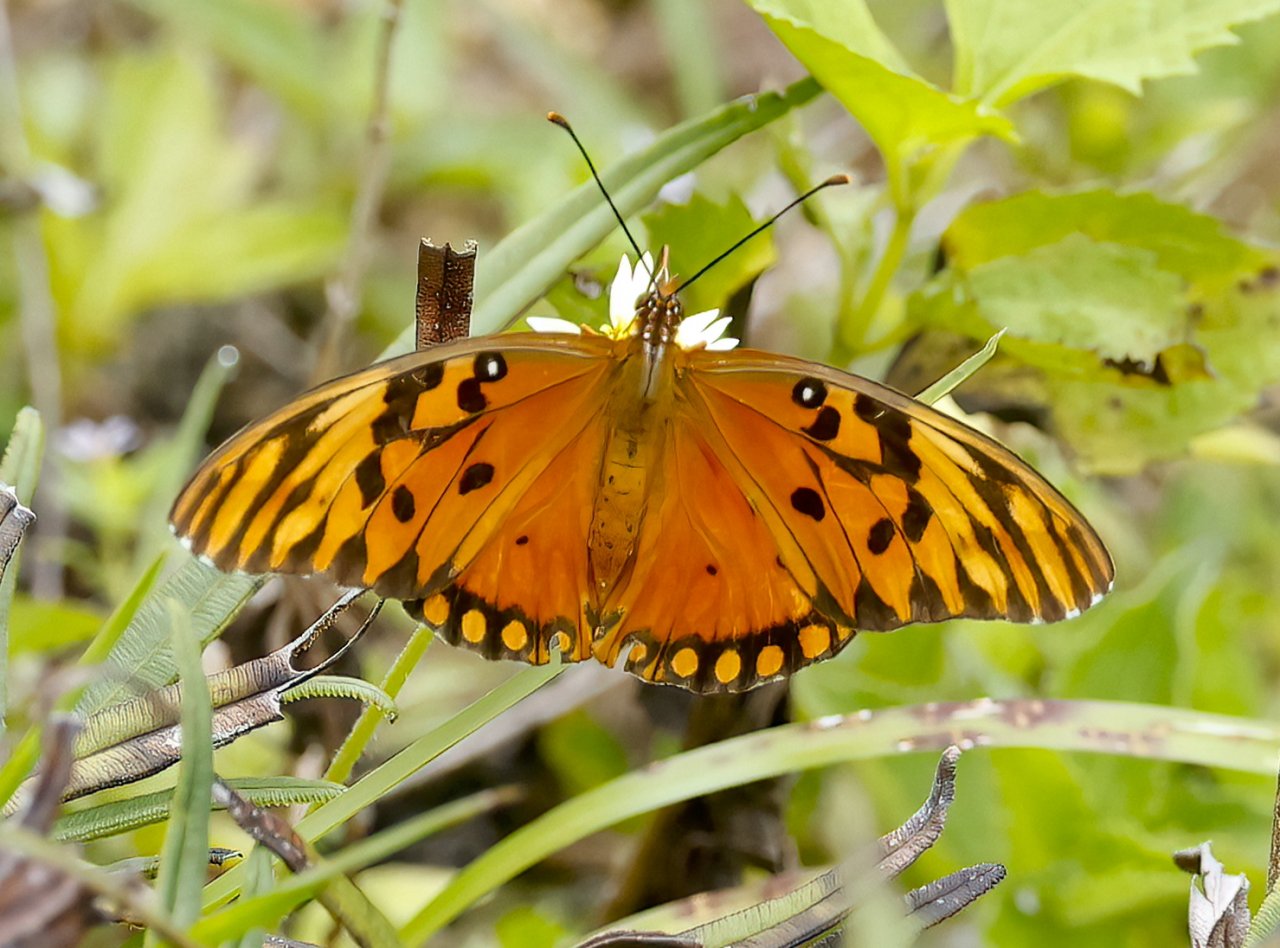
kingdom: Animalia
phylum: Arthropoda
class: Insecta
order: Lepidoptera
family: Nymphalidae
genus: Dione
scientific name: Dione vanillae
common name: Gulf Fritillary
